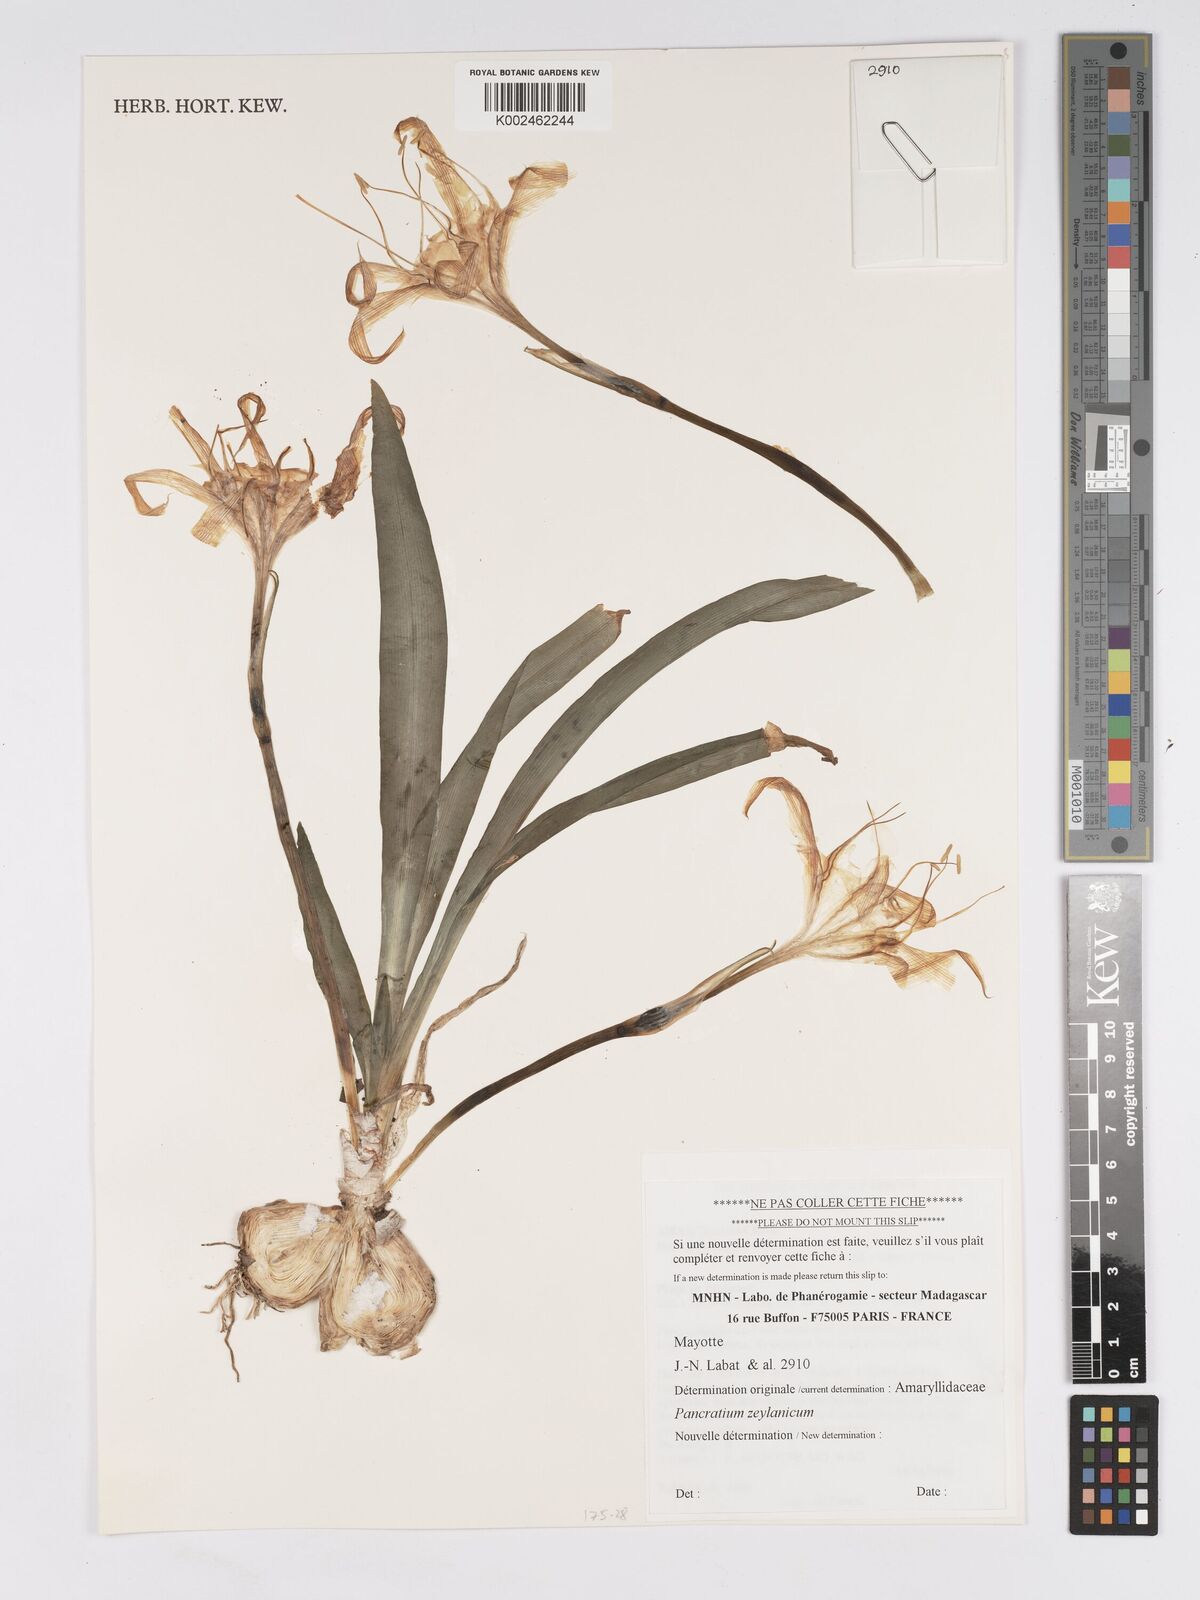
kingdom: Plantae
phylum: Tracheophyta
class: Liliopsida
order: Asparagales
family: Amaryllidaceae
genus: Pancratium
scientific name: Pancratium zeylanicum
